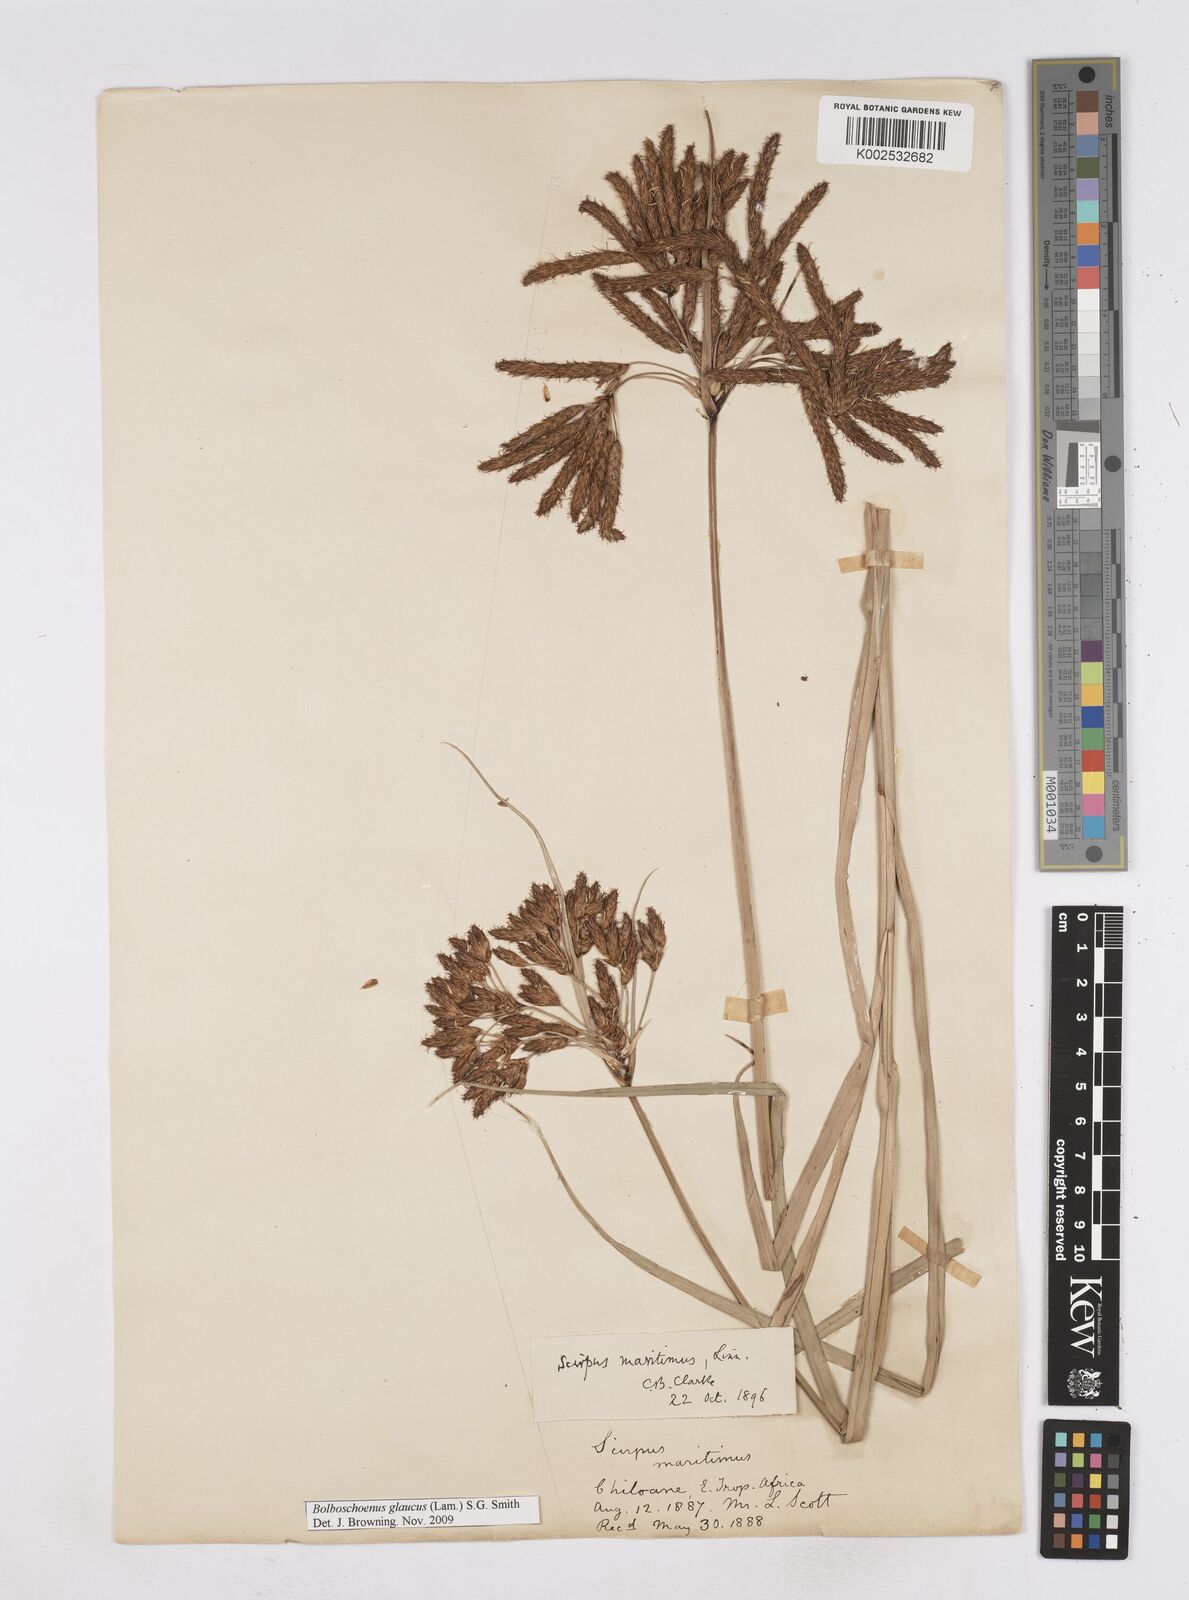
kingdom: Plantae
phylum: Tracheophyta
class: Liliopsida
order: Poales
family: Cyperaceae
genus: Bolboschoenus
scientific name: Bolboschoenus glaucus
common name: Tuberous bulrush
